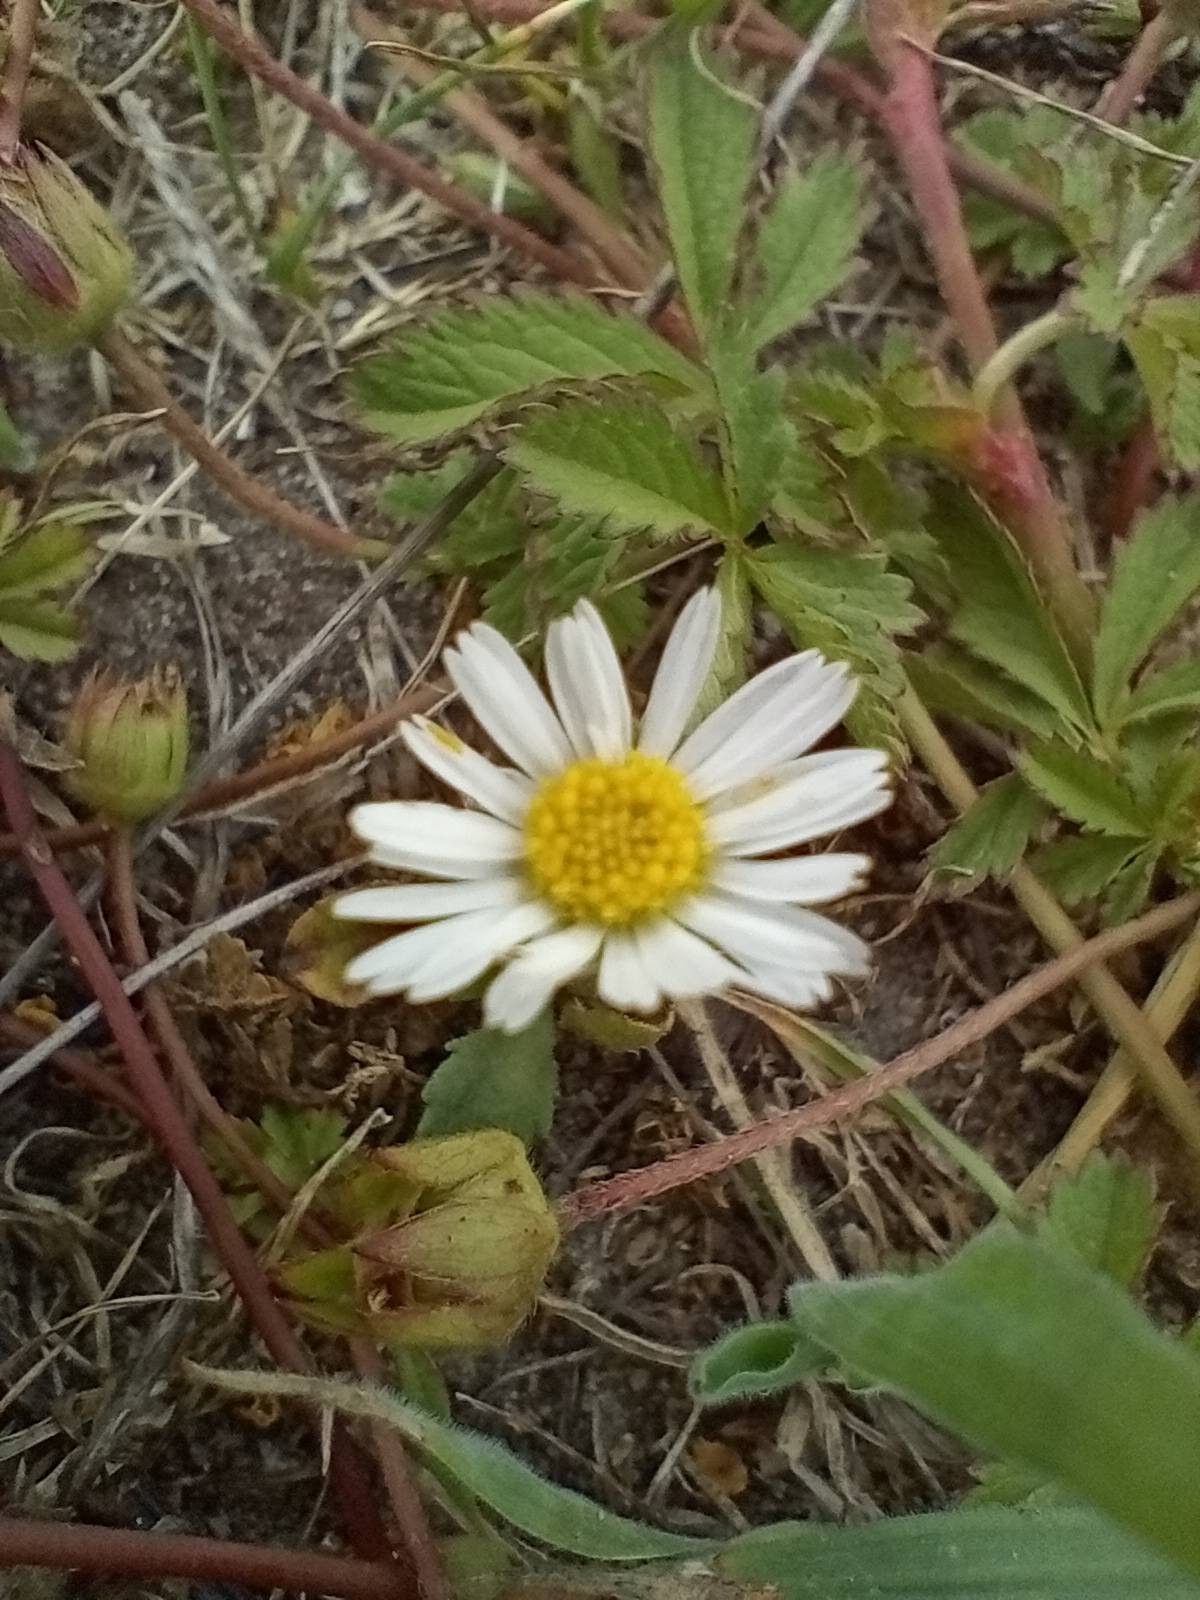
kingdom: Plantae
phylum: Tracheophyta
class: Magnoliopsida
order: Asterales
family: Asteraceae
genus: Bellis
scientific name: Bellis perennis
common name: Tusindfryd
